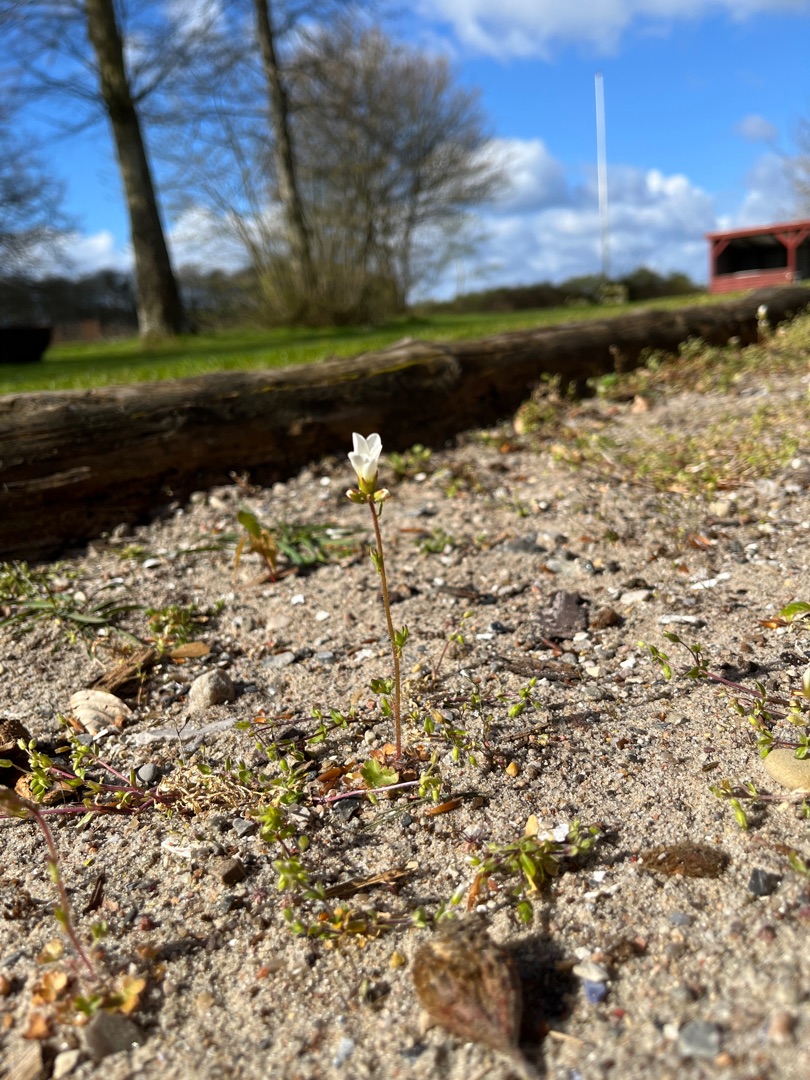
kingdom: Plantae
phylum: Tracheophyta
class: Magnoliopsida
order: Saxifragales
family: Saxifragaceae
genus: Saxifraga
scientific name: Saxifraga granulata
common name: Kornet stenbræk
